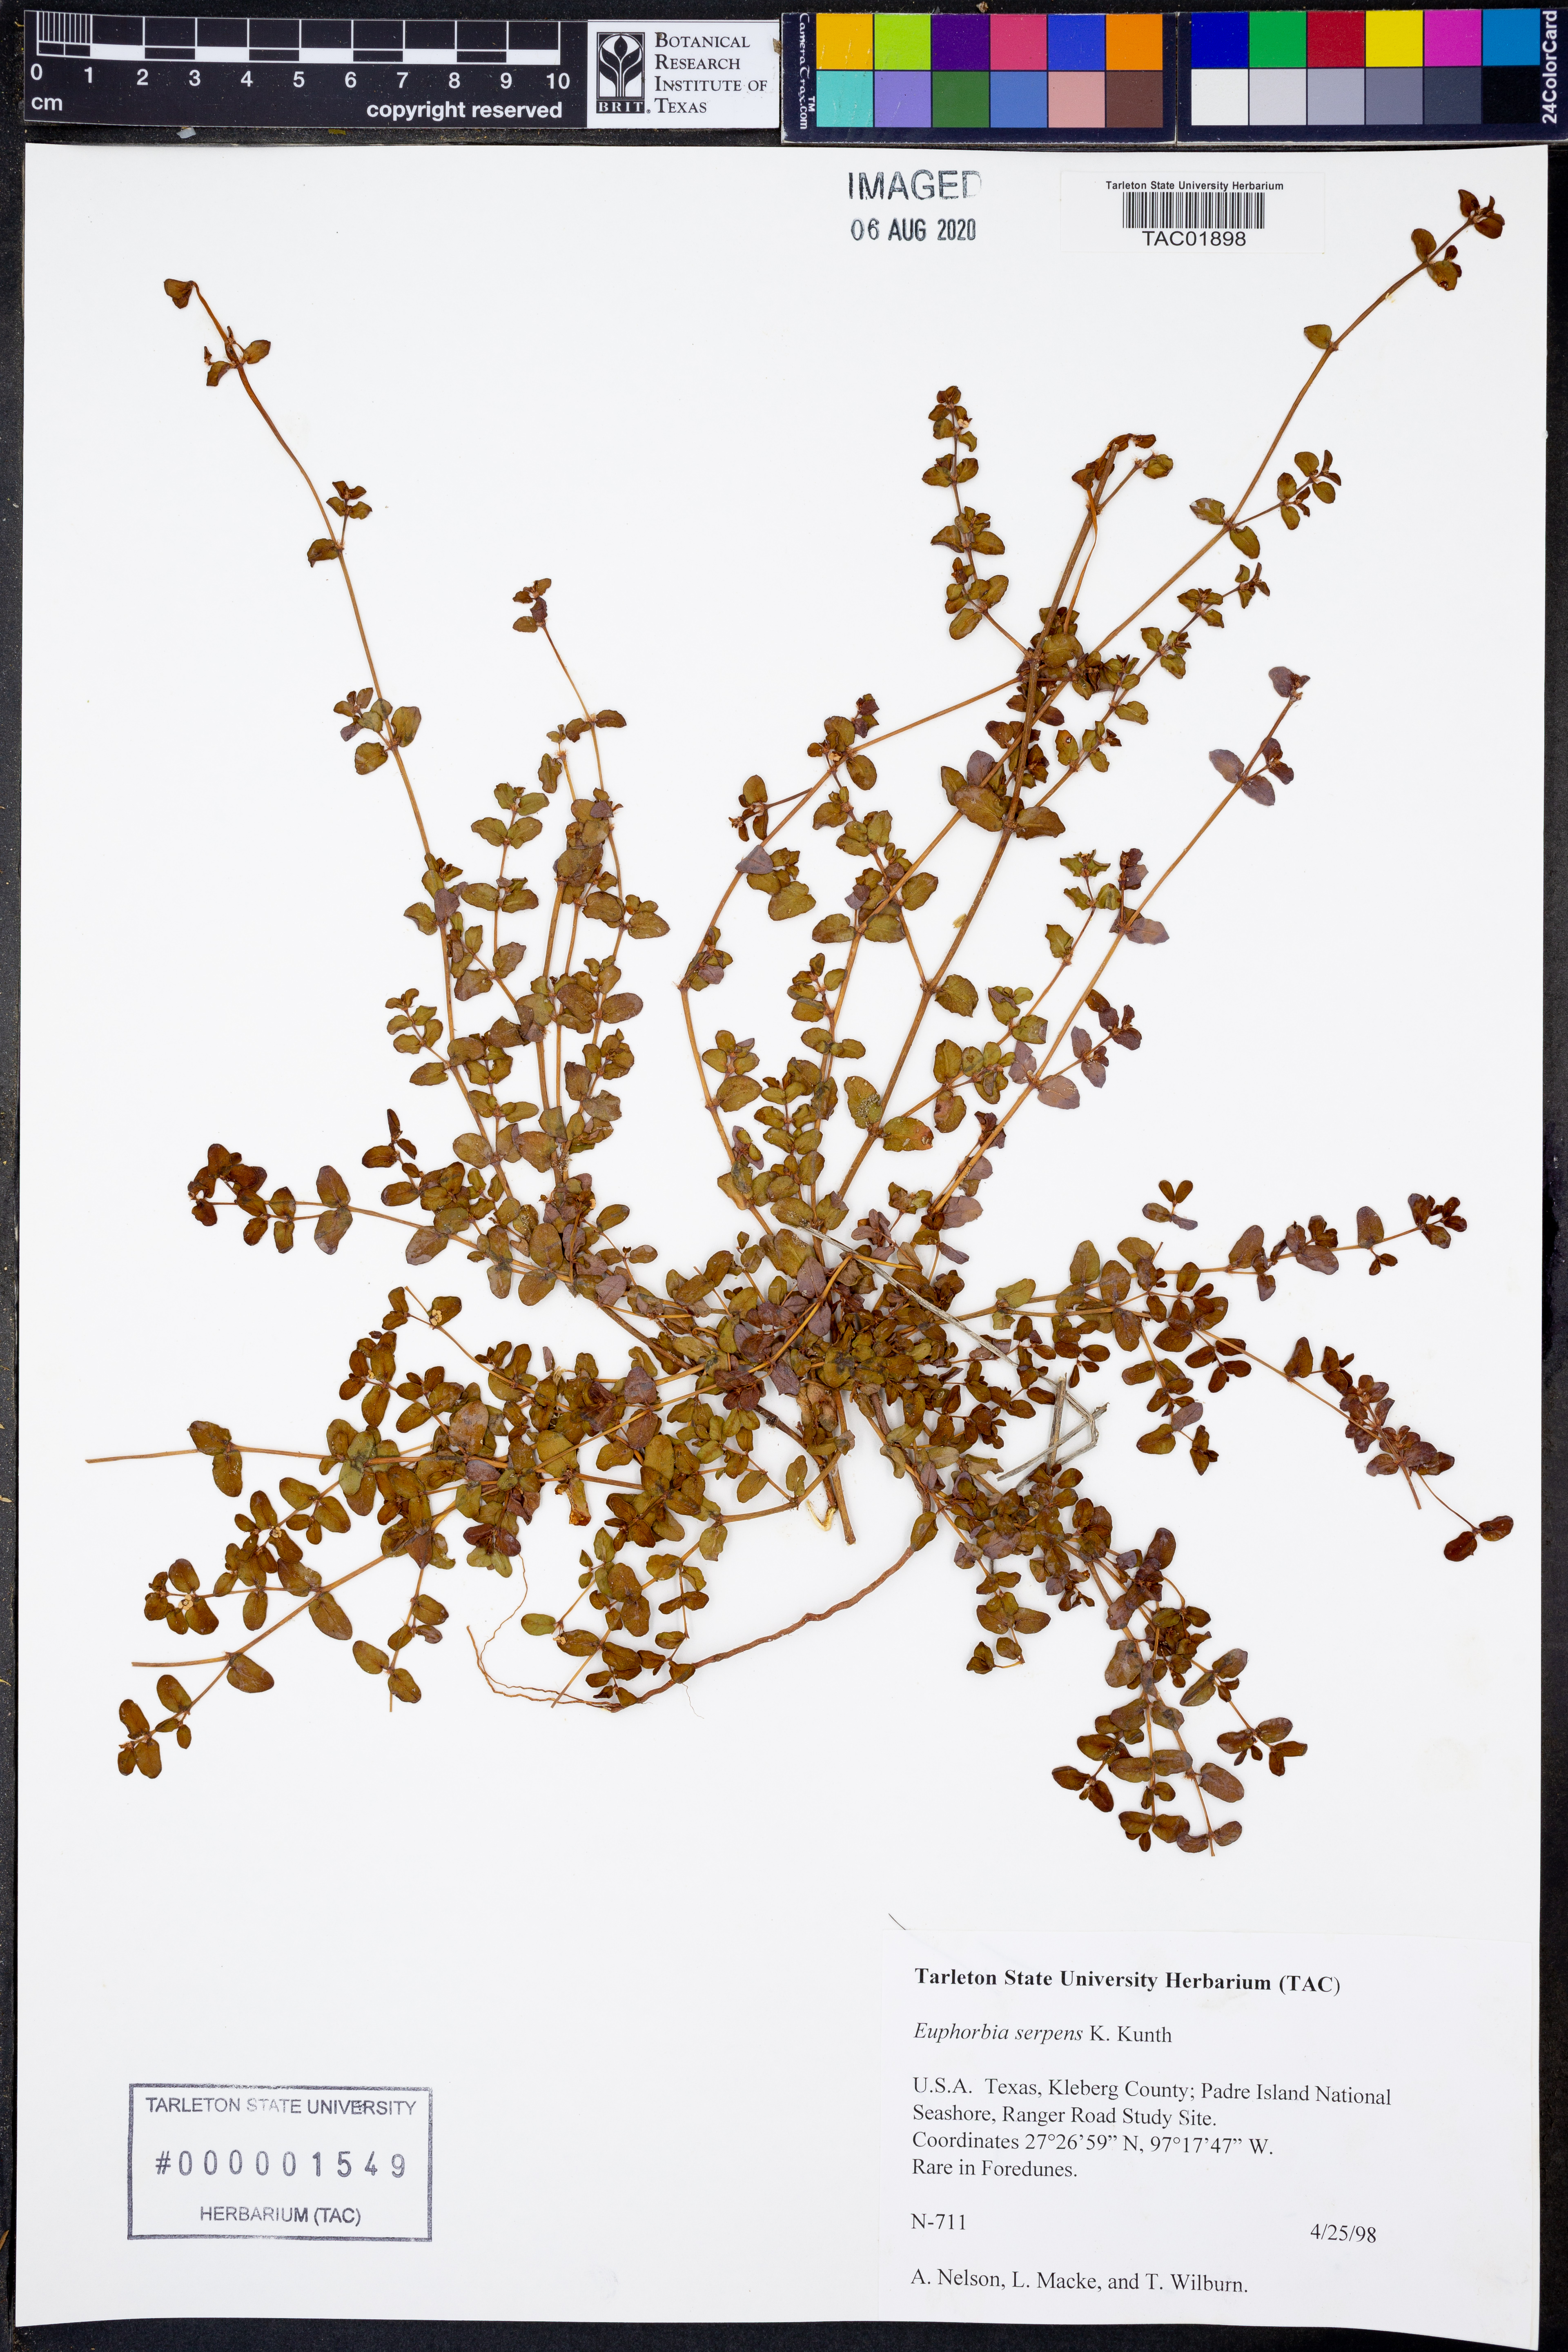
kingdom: Plantae
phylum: Tracheophyta
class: Magnoliopsida
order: Malpighiales
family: Euphorbiaceae
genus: Euphorbia
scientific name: Euphorbia serpens
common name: Matted sandmat
